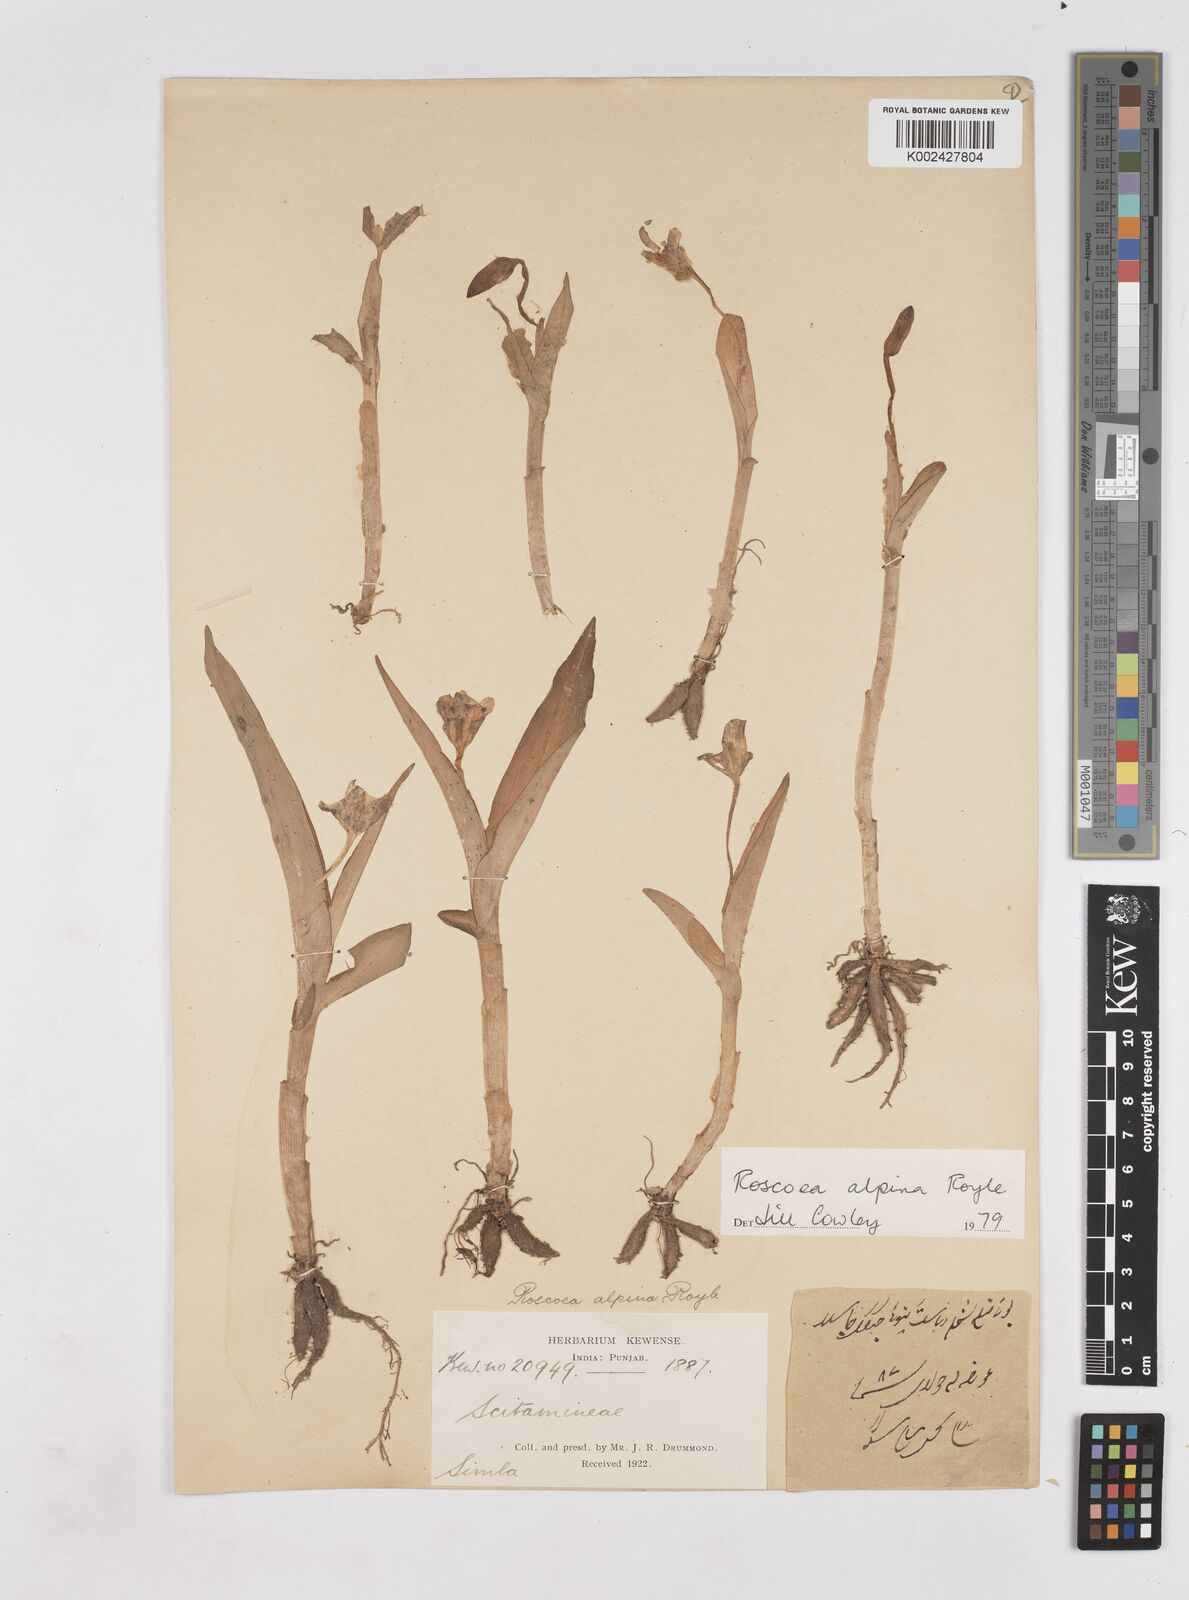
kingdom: Plantae
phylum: Tracheophyta
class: Liliopsida
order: Zingiberales
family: Zingiberaceae
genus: Roscoea
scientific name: Roscoea alpina
